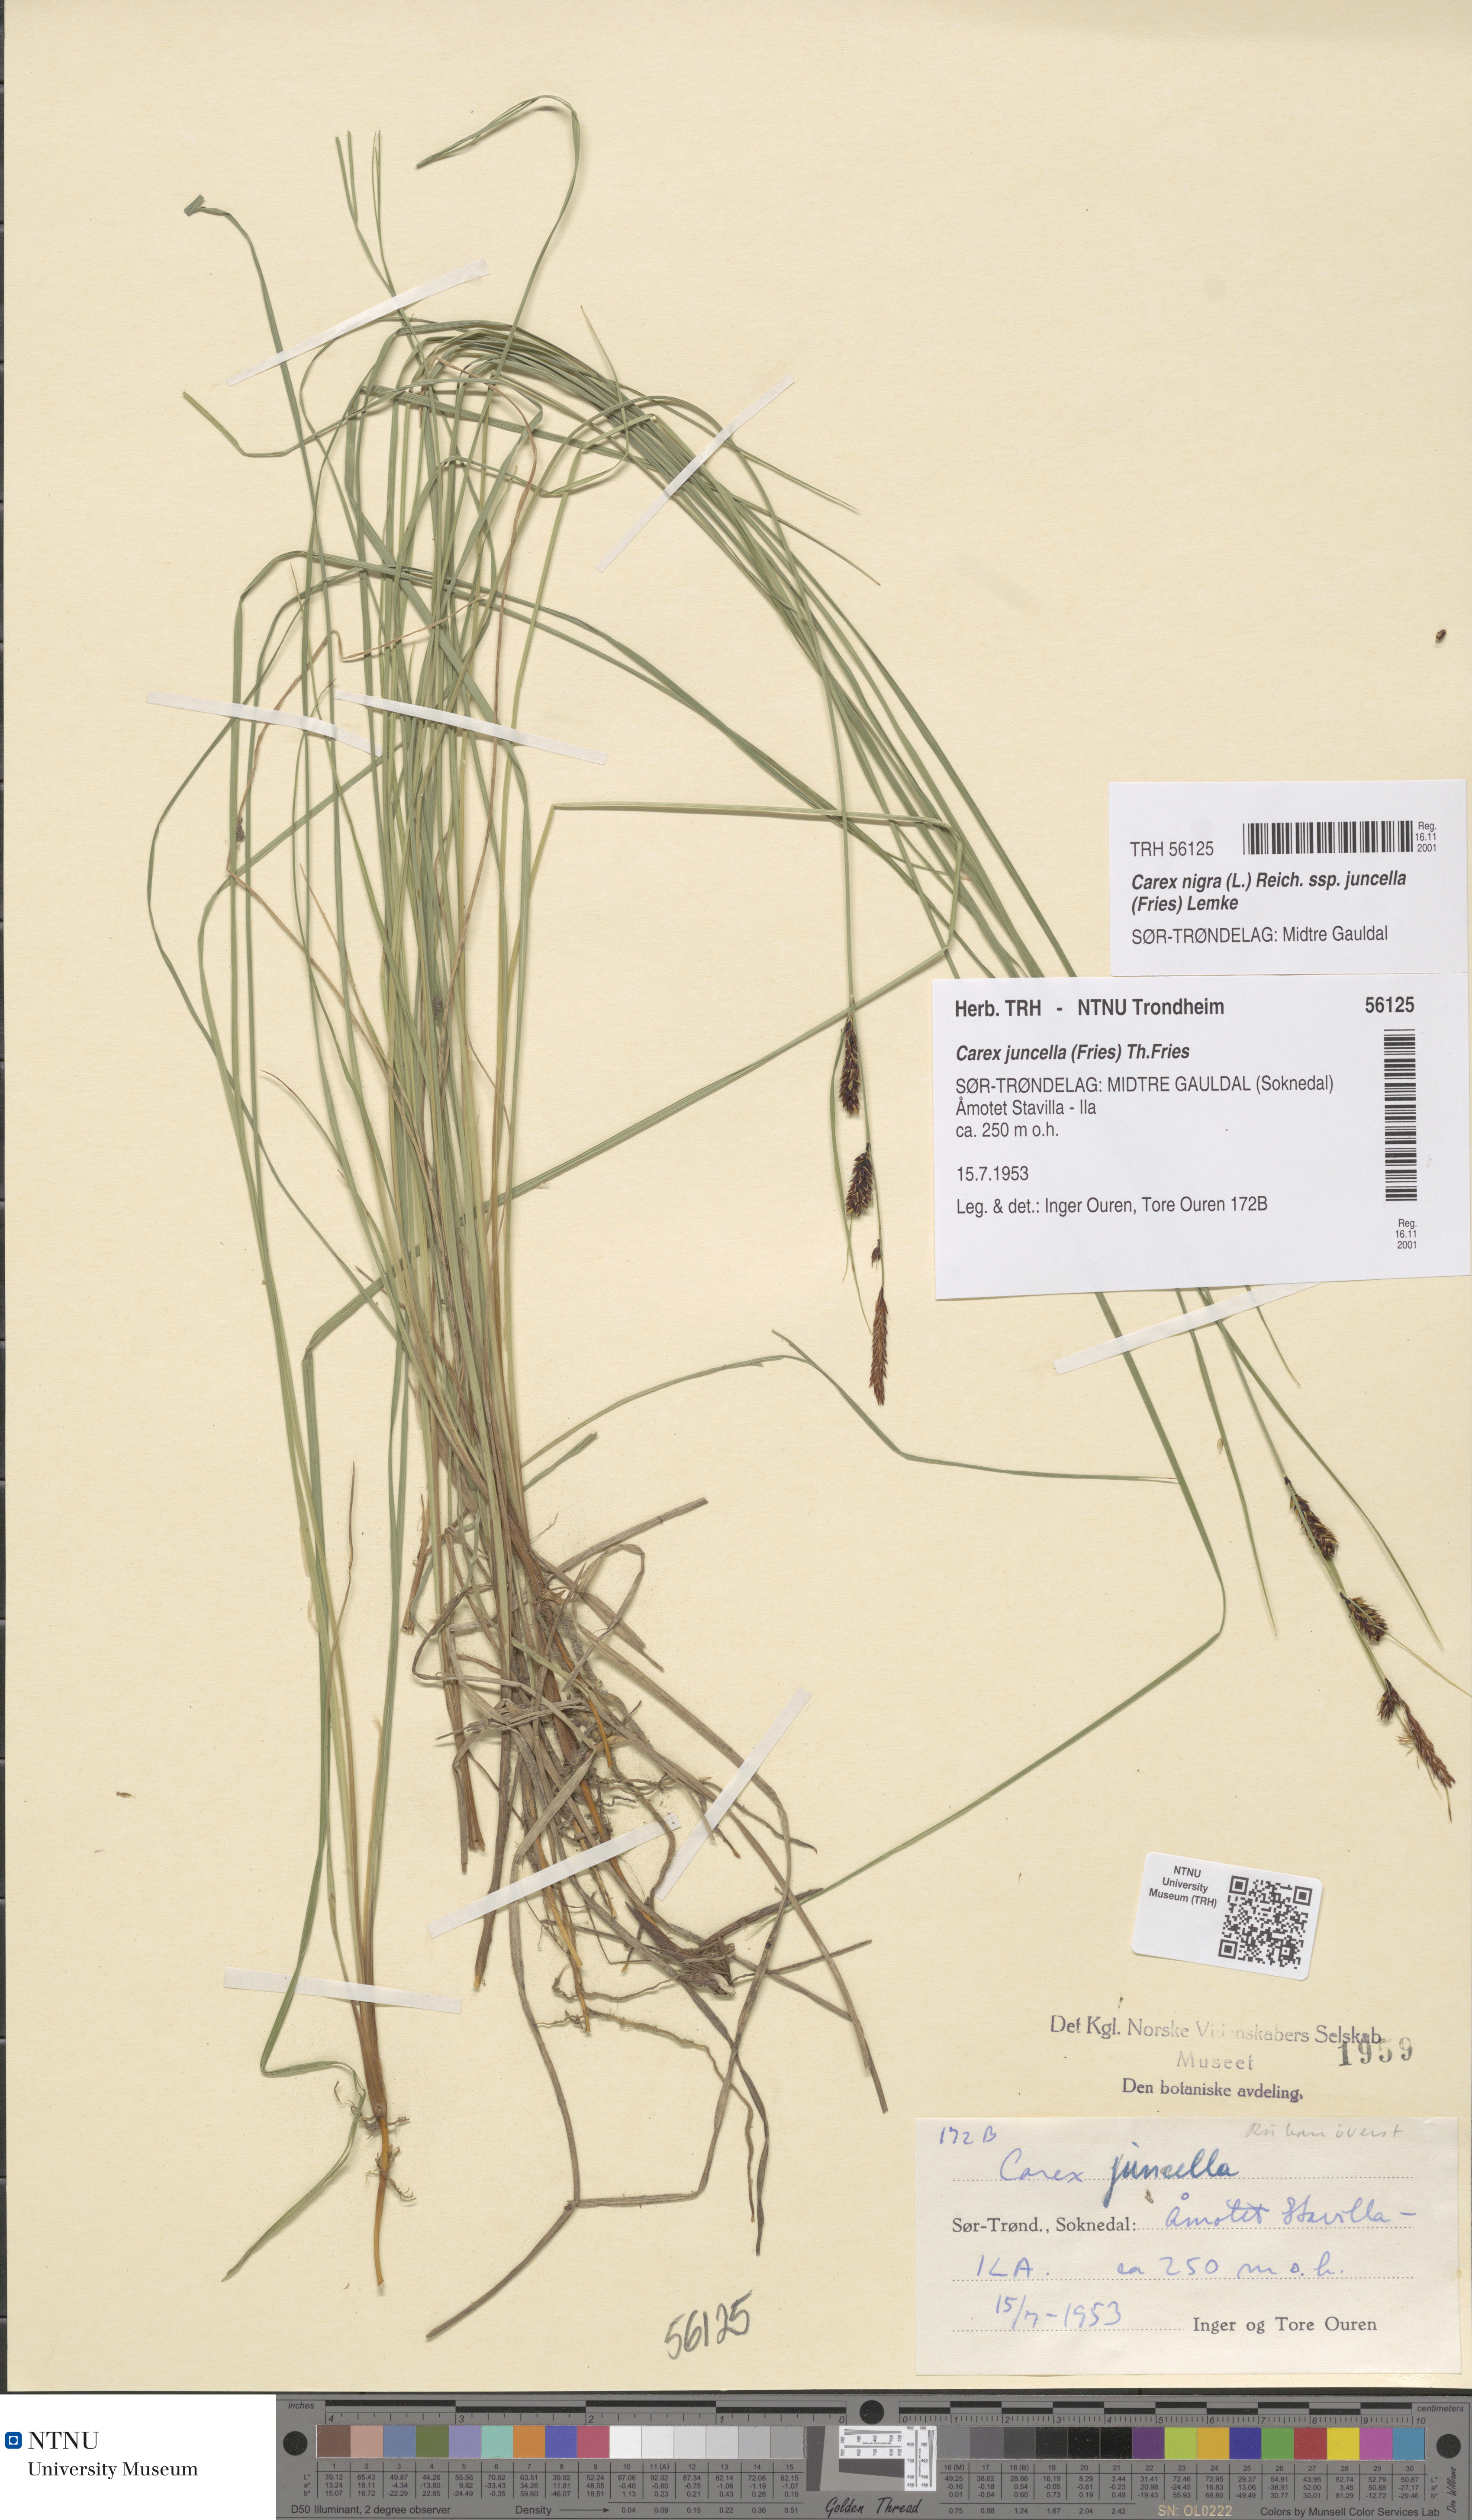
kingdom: Plantae
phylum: Tracheophyta
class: Liliopsida
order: Poales
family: Cyperaceae
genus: Carex
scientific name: Carex nigra
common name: Common sedge
